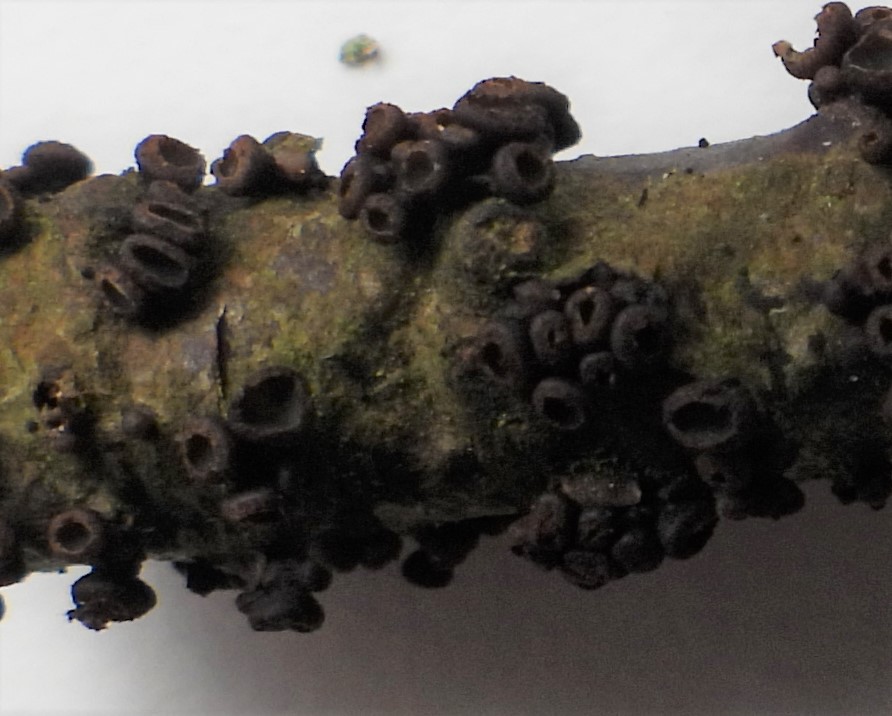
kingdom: Fungi
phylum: Ascomycota
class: Leotiomycetes
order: Helotiales
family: Godroniaceae
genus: Godronia
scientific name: Godronia uberiformis
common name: solbær-urneskive
